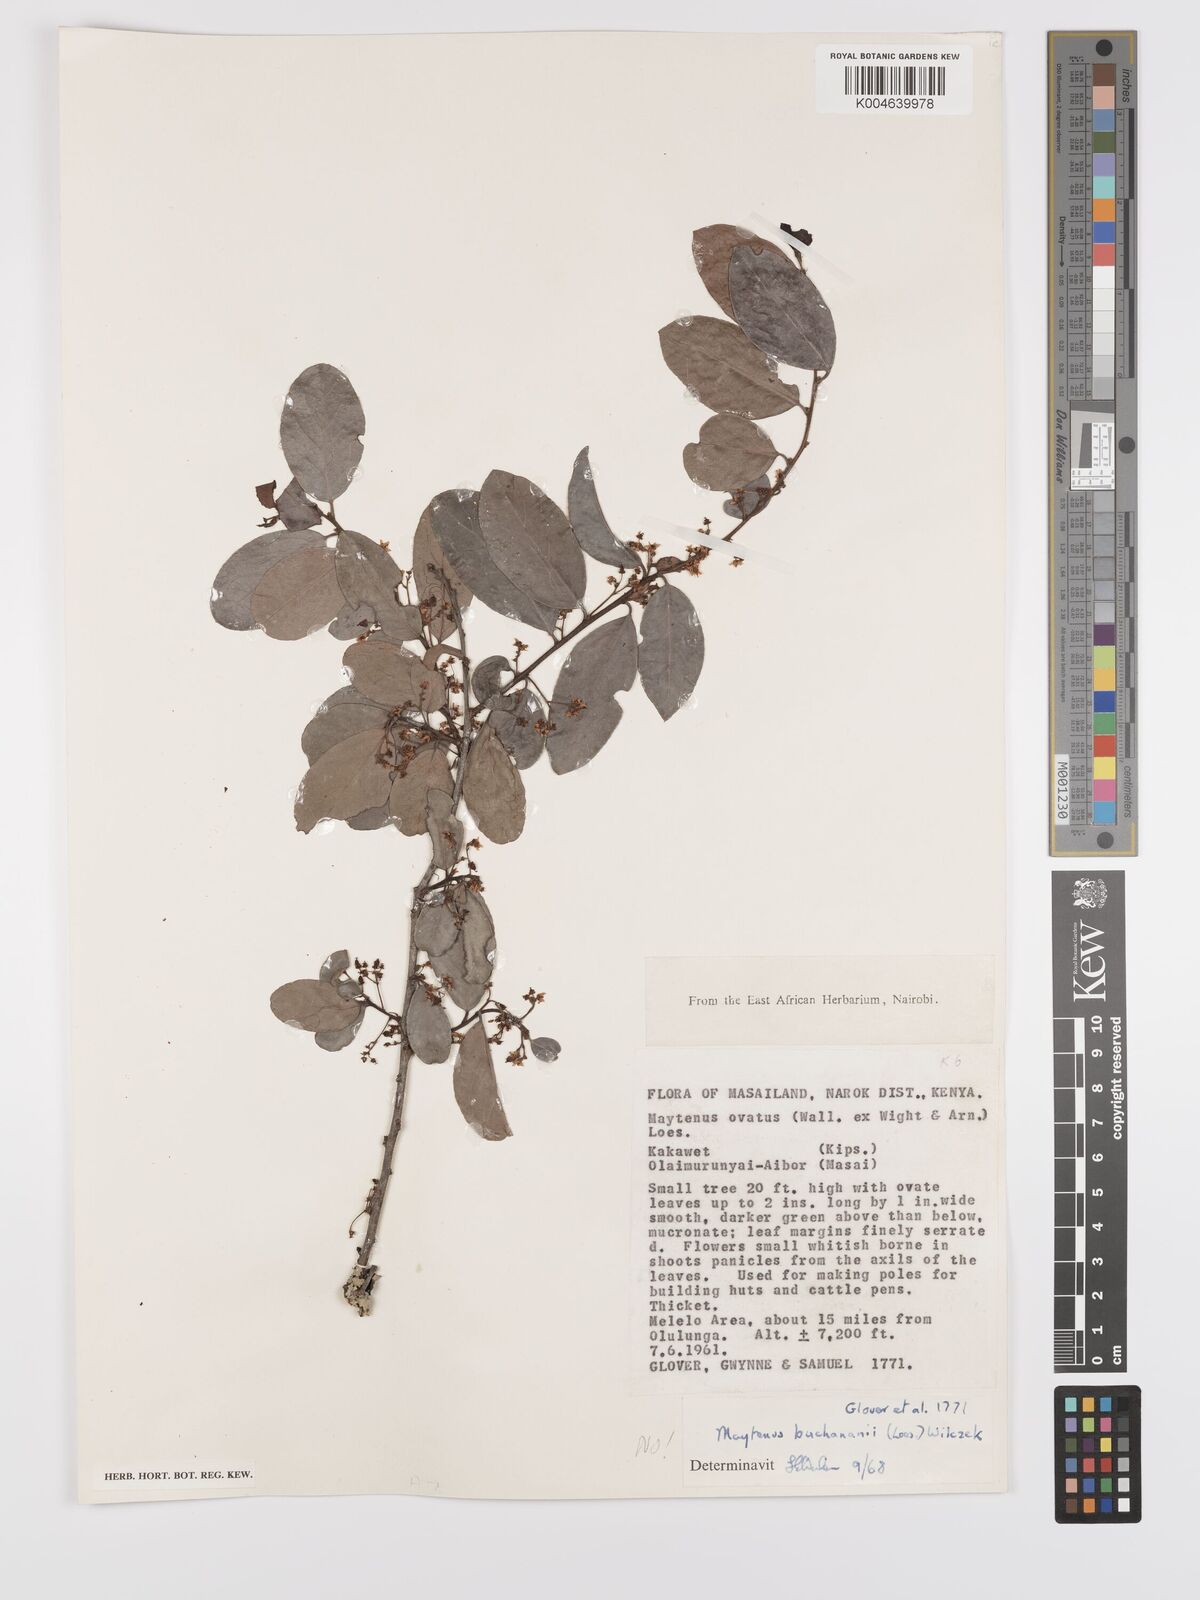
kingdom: Plantae
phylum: Tracheophyta
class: Magnoliopsida
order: Celastrales
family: Celastraceae
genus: Gymnosporia
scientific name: Gymnosporia arbutifolia
